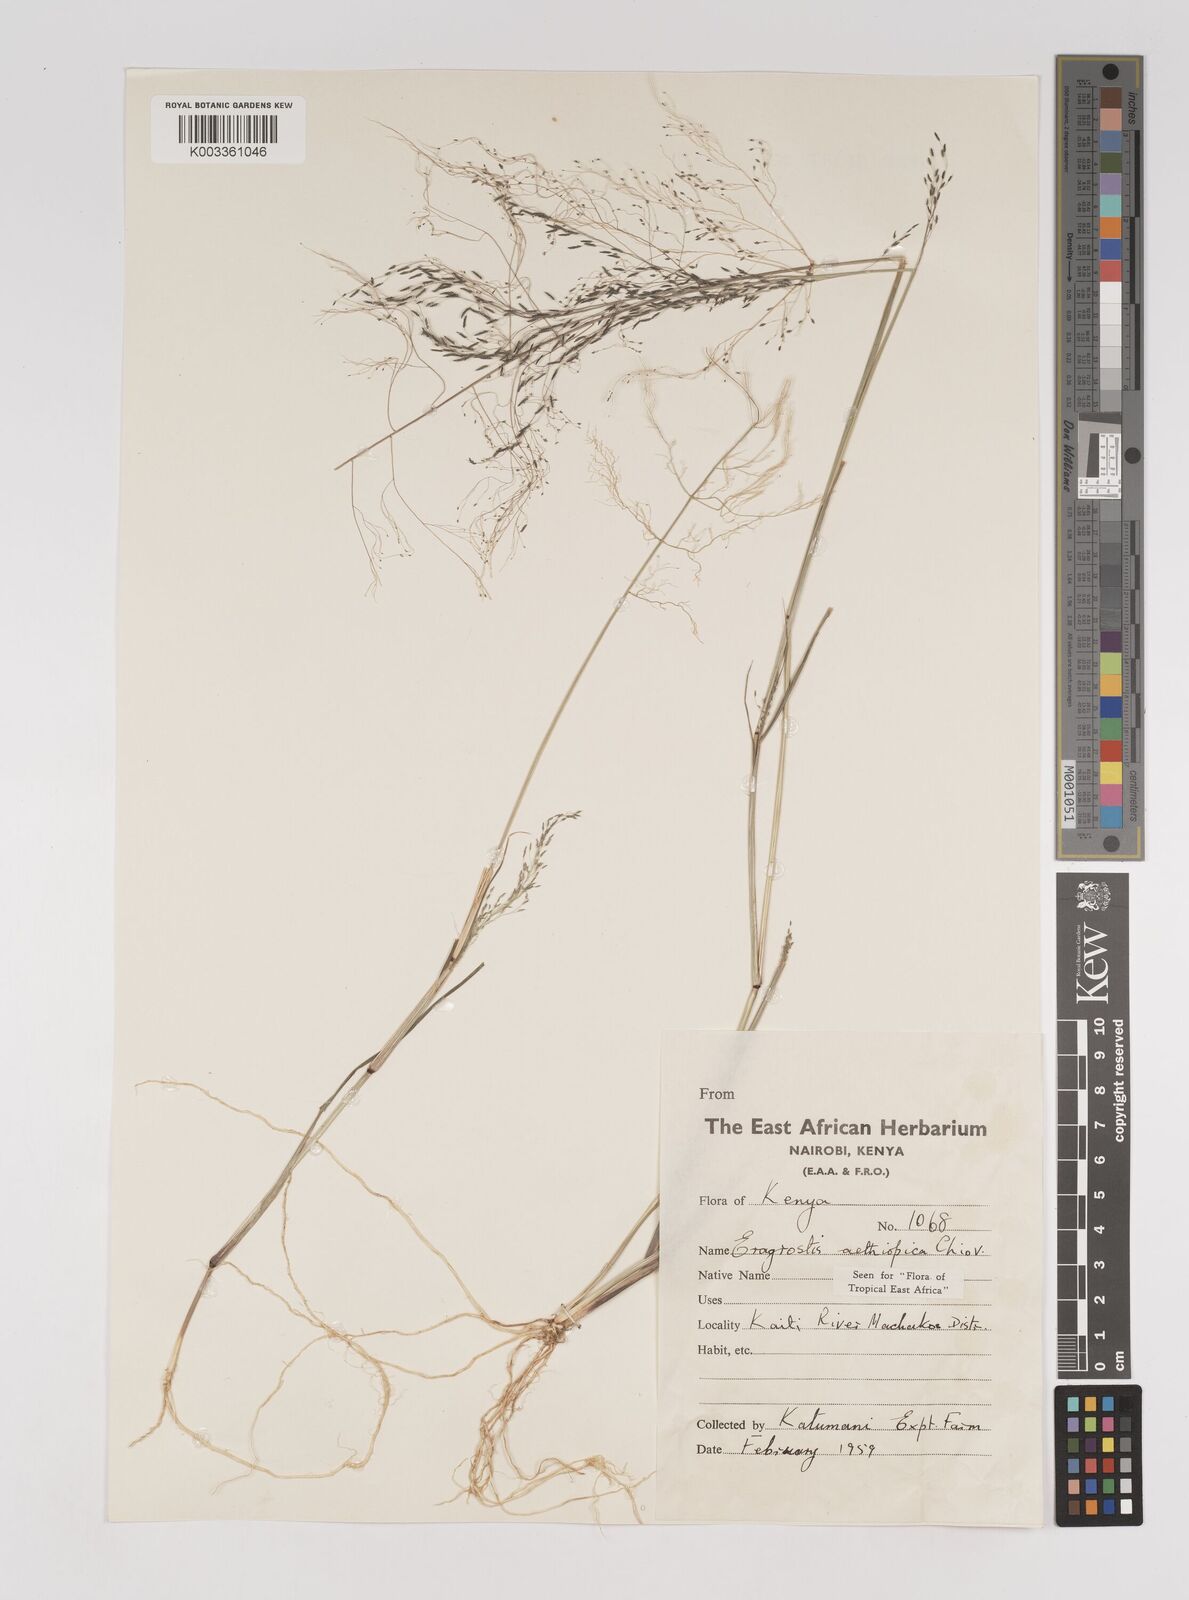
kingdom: Plantae
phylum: Tracheophyta
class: Liliopsida
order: Poales
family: Poaceae
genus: Eragrostis
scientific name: Eragrostis aethiopica
